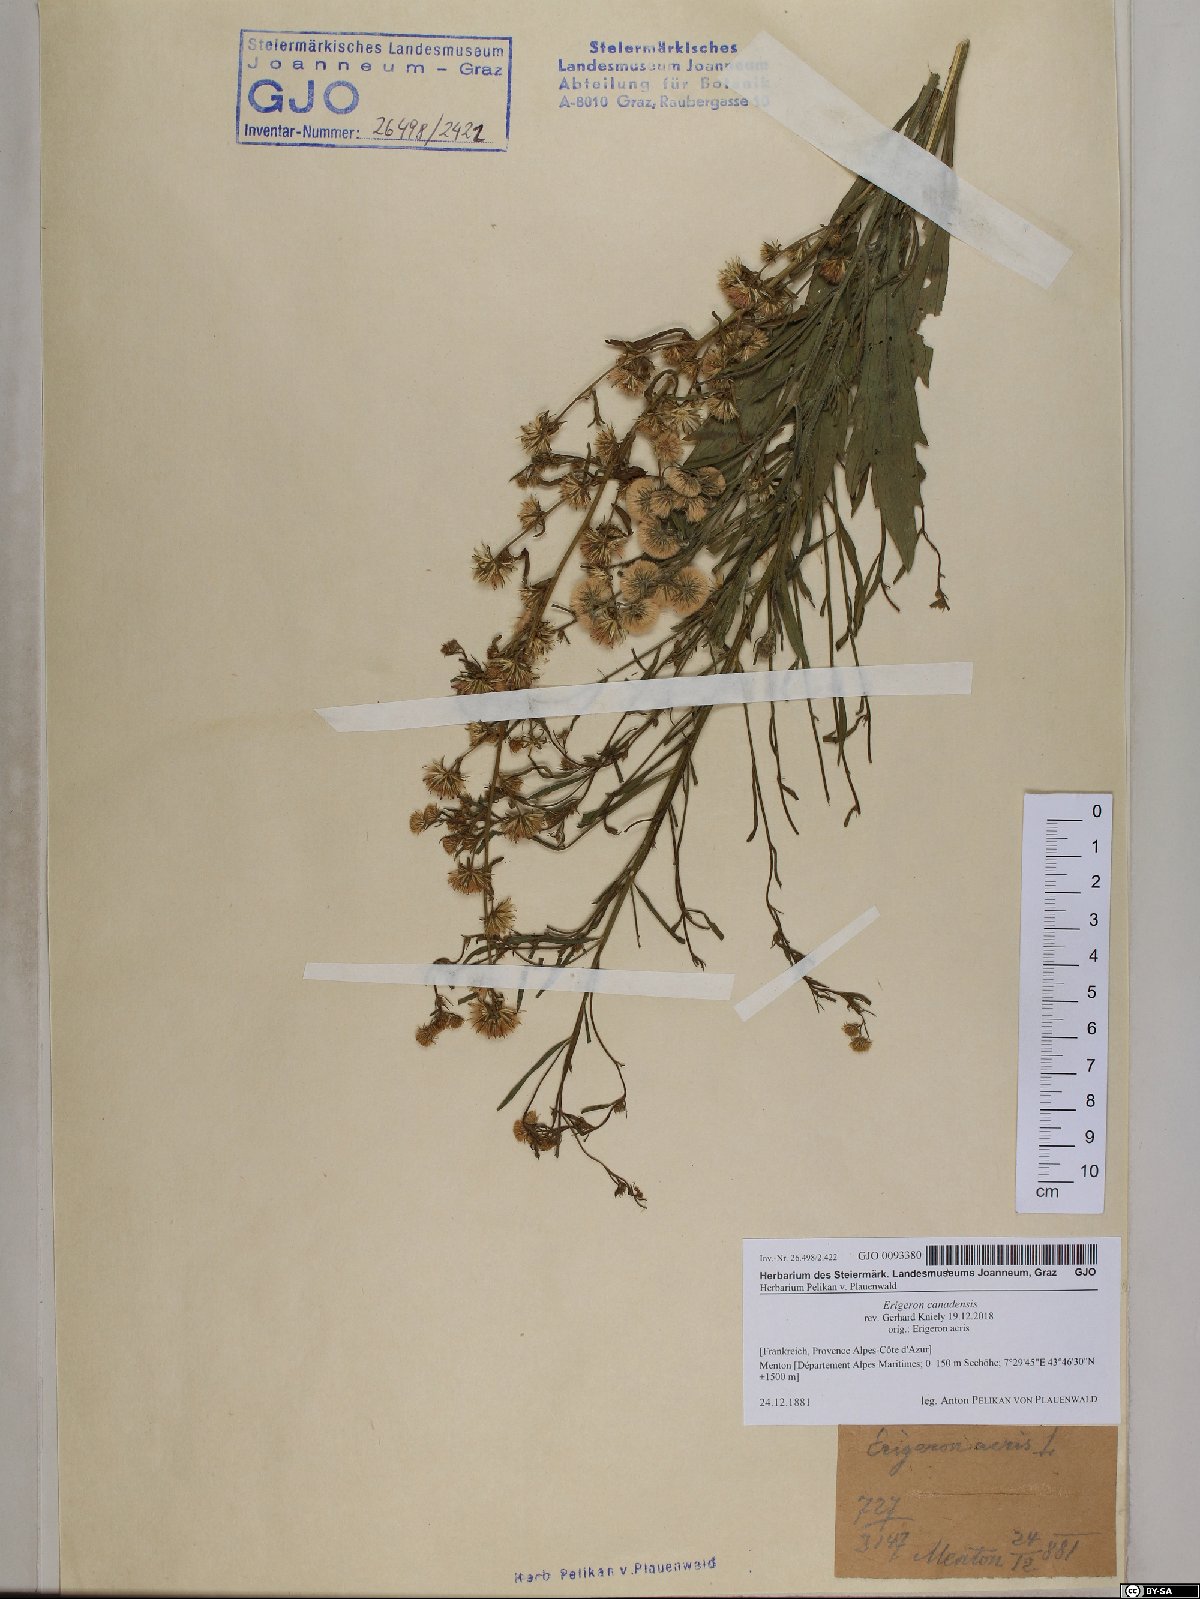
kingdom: Plantae
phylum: Tracheophyta
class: Magnoliopsida
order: Asterales
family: Asteraceae
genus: Erigeron
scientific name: Erigeron canadensis
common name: Canadian fleabane
